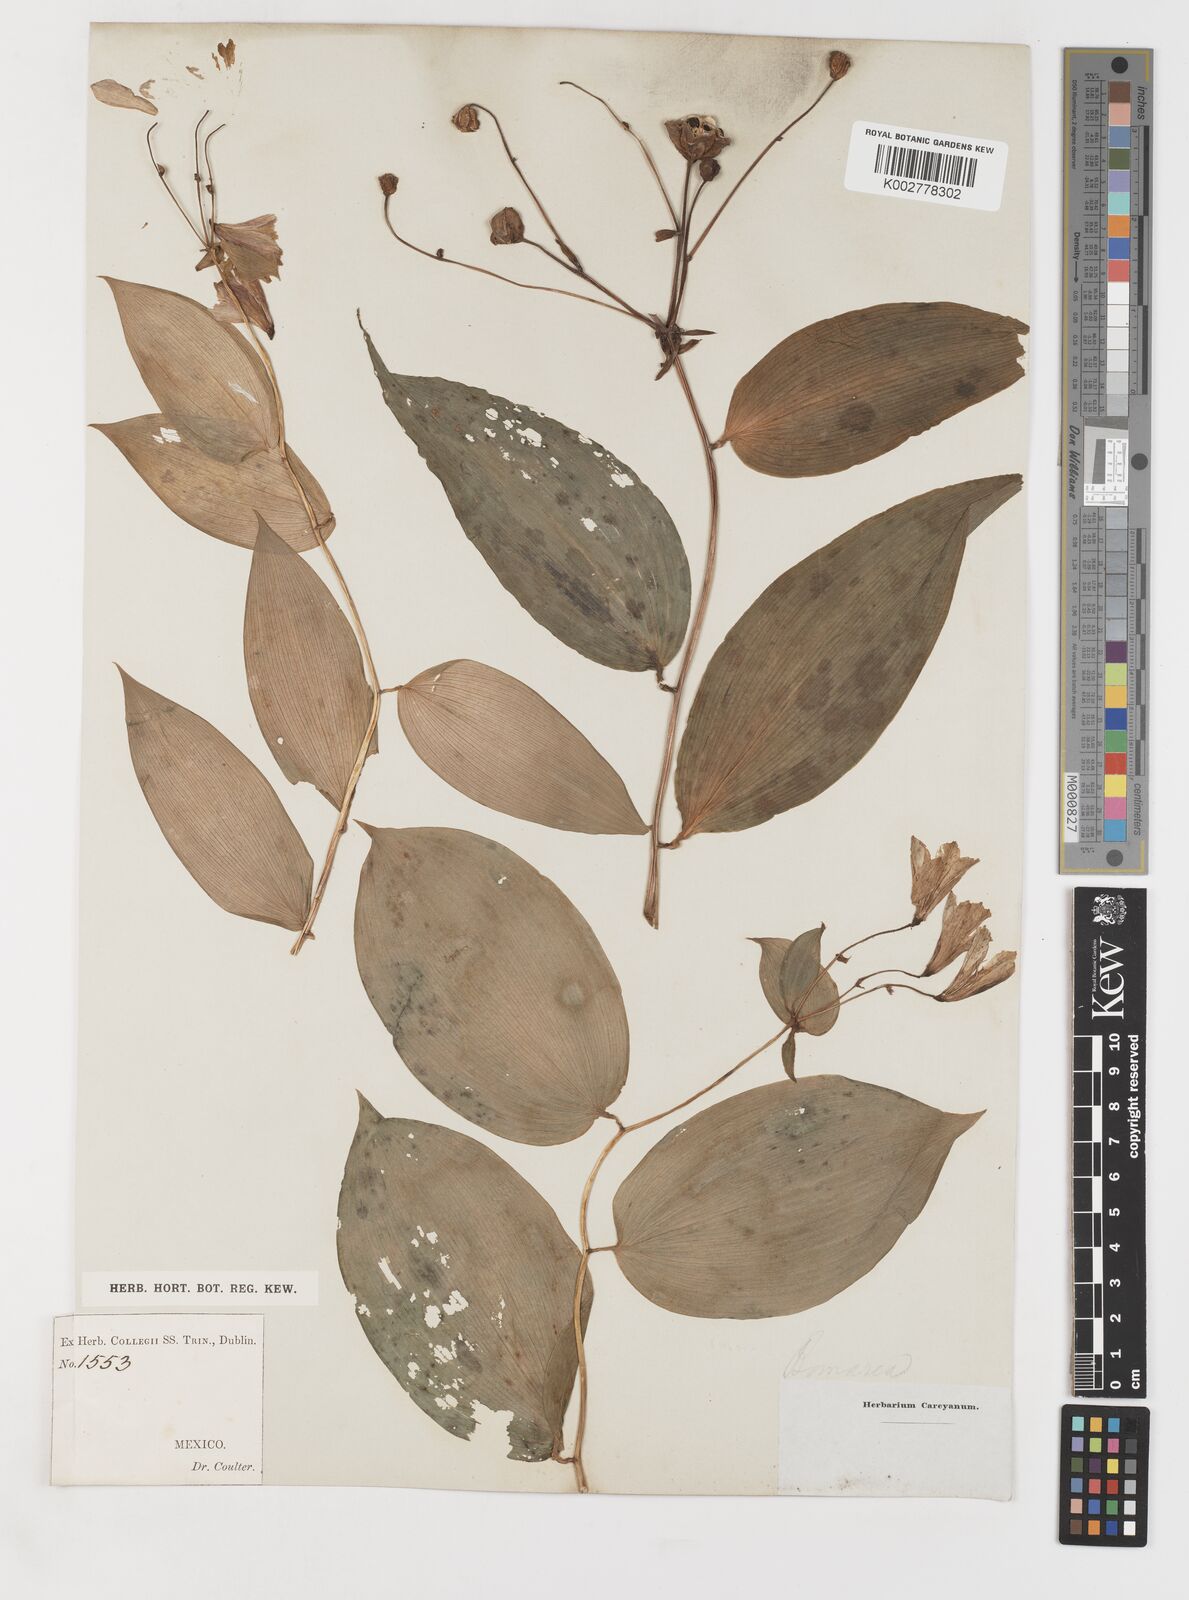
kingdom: Plantae
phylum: Tracheophyta
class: Liliopsida
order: Liliales
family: Alstroemeriaceae
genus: Bomarea
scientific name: Bomarea edulis
